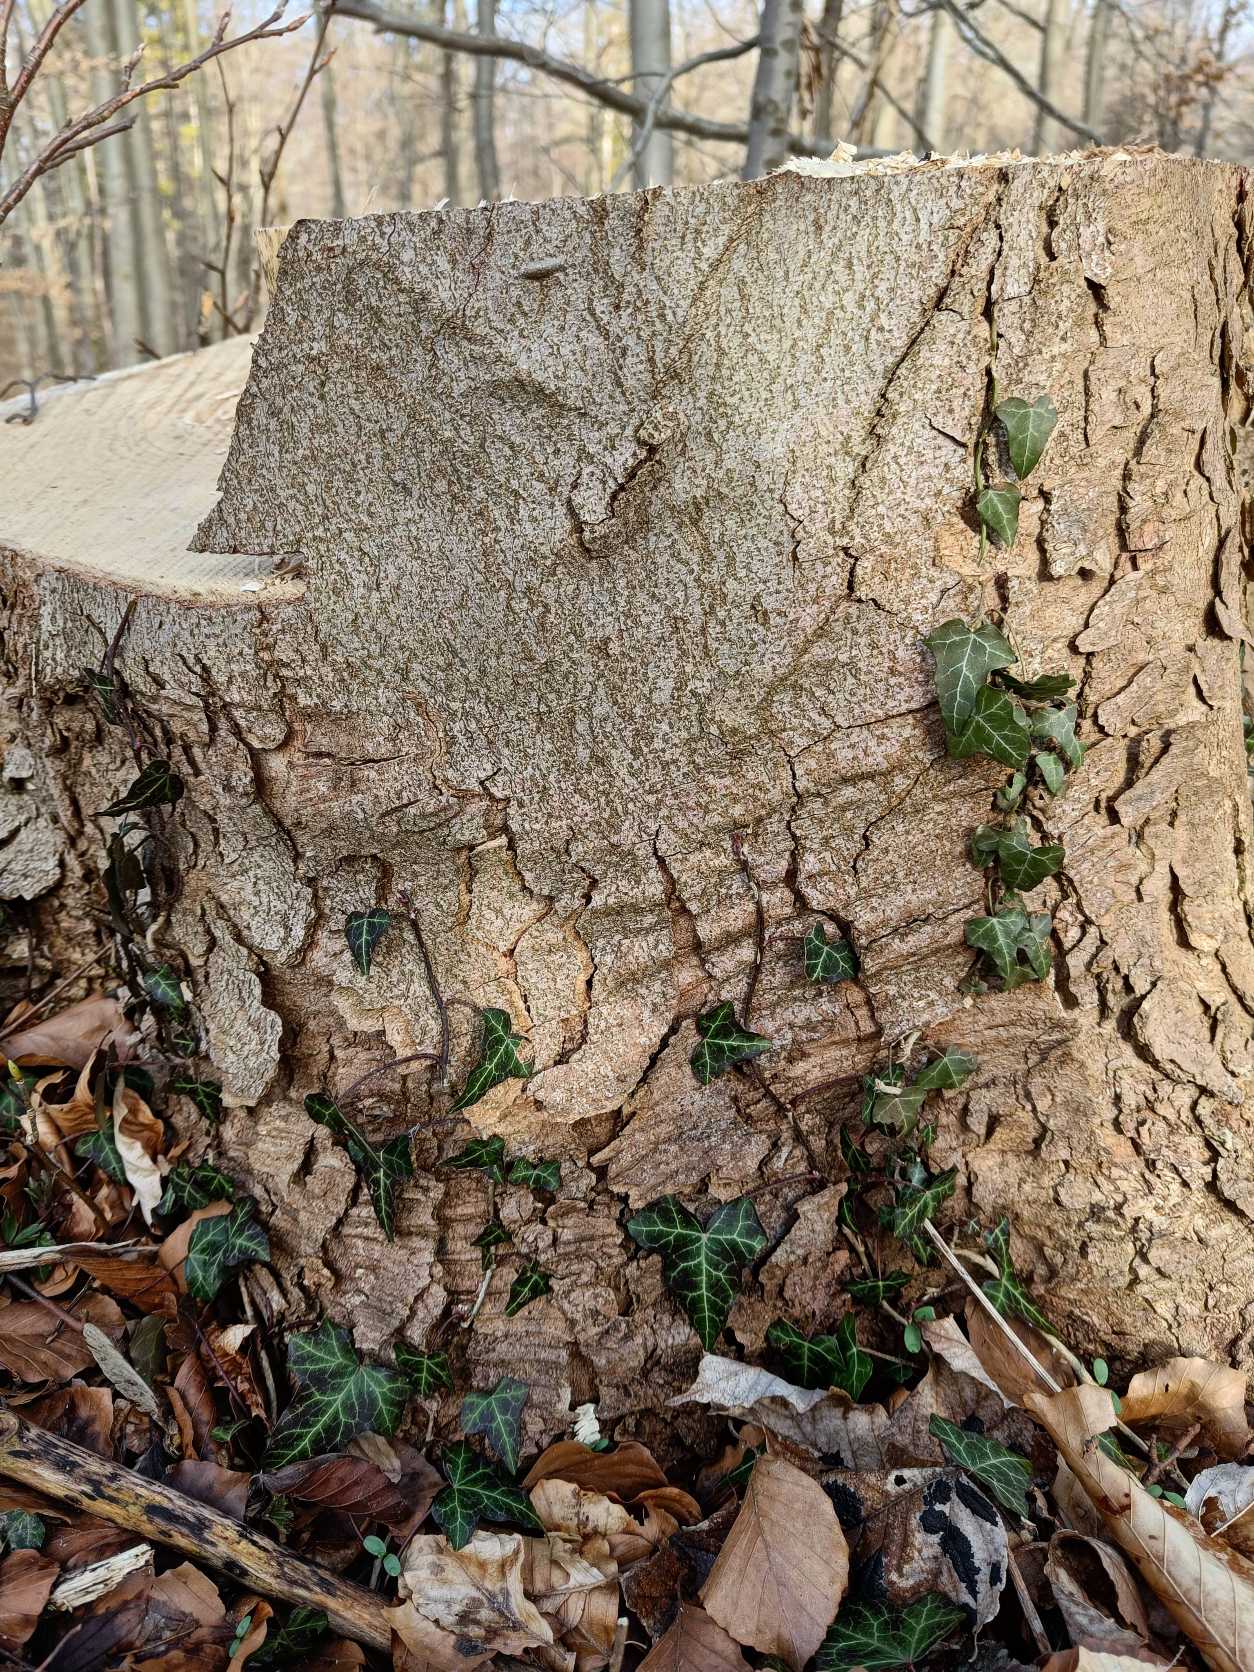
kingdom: Plantae
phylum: Tracheophyta
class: Magnoliopsida
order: Apiales
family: Araliaceae
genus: Hedera
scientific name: Hedera helix
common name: Vedbend
